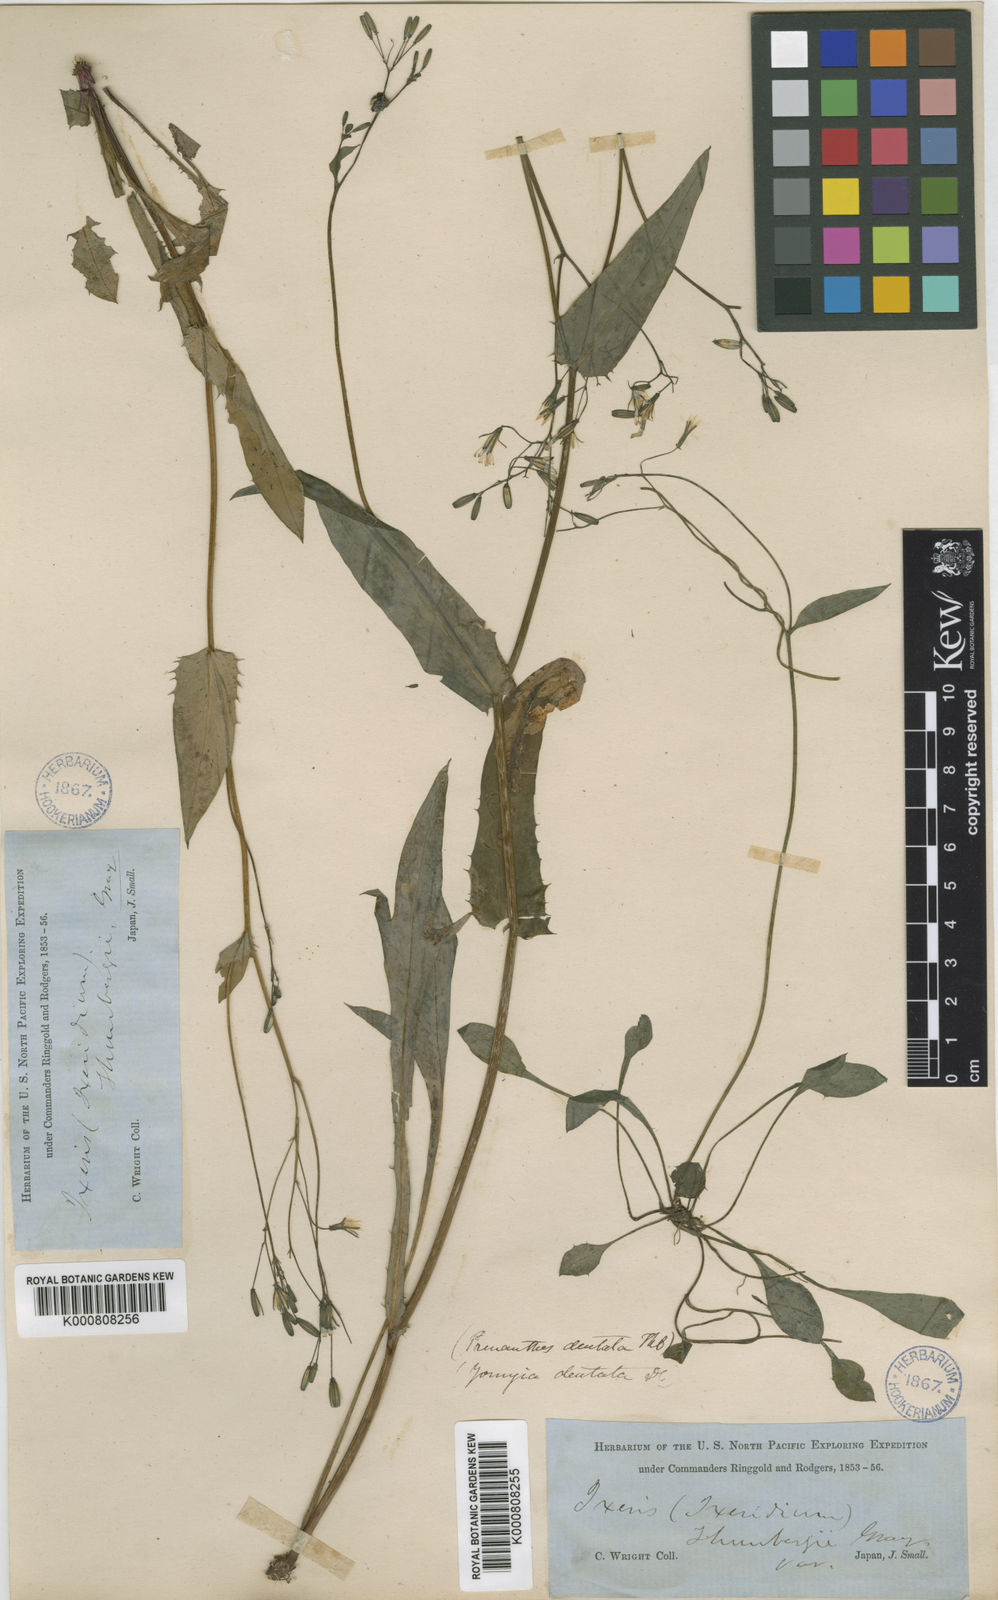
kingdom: Plantae
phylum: Tracheophyta
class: Magnoliopsida
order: Asterales
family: Asteraceae
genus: Ixeridium
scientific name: Ixeridium dentatum
